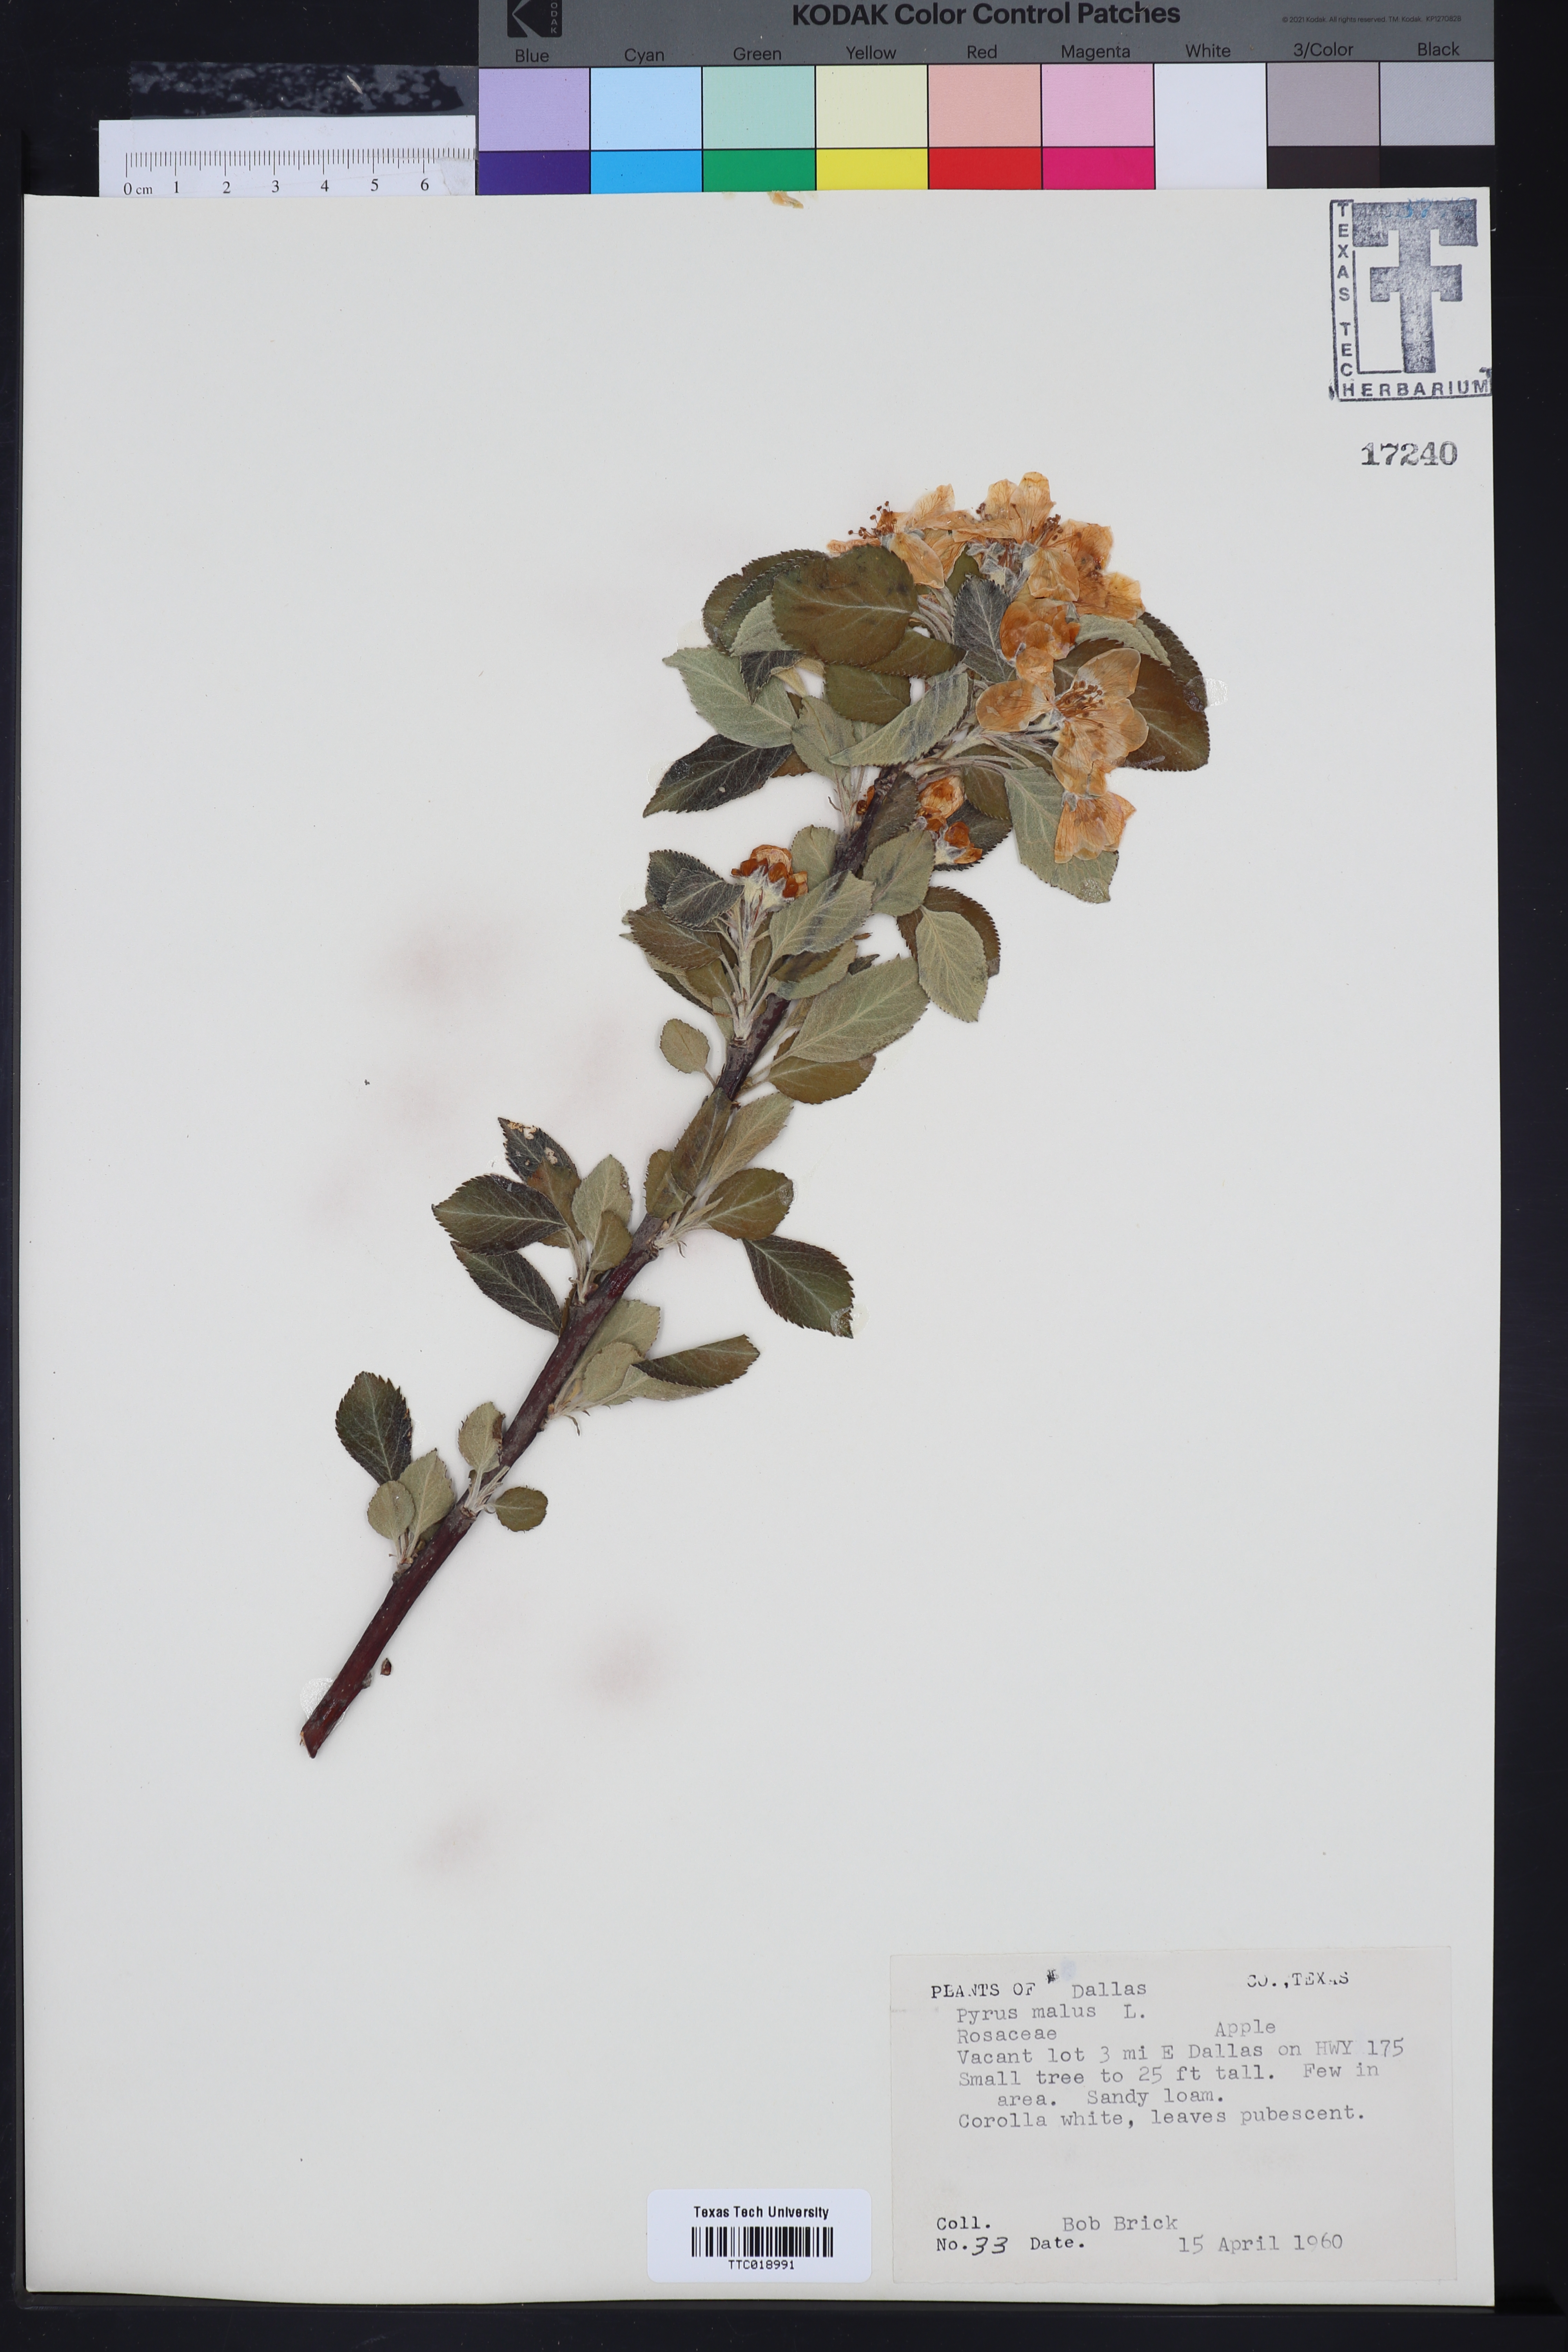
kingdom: Plantae
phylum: Tracheophyta
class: Magnoliopsida
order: Rosales
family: Rosaceae
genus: Malus
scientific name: Malus domestica
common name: Apple
